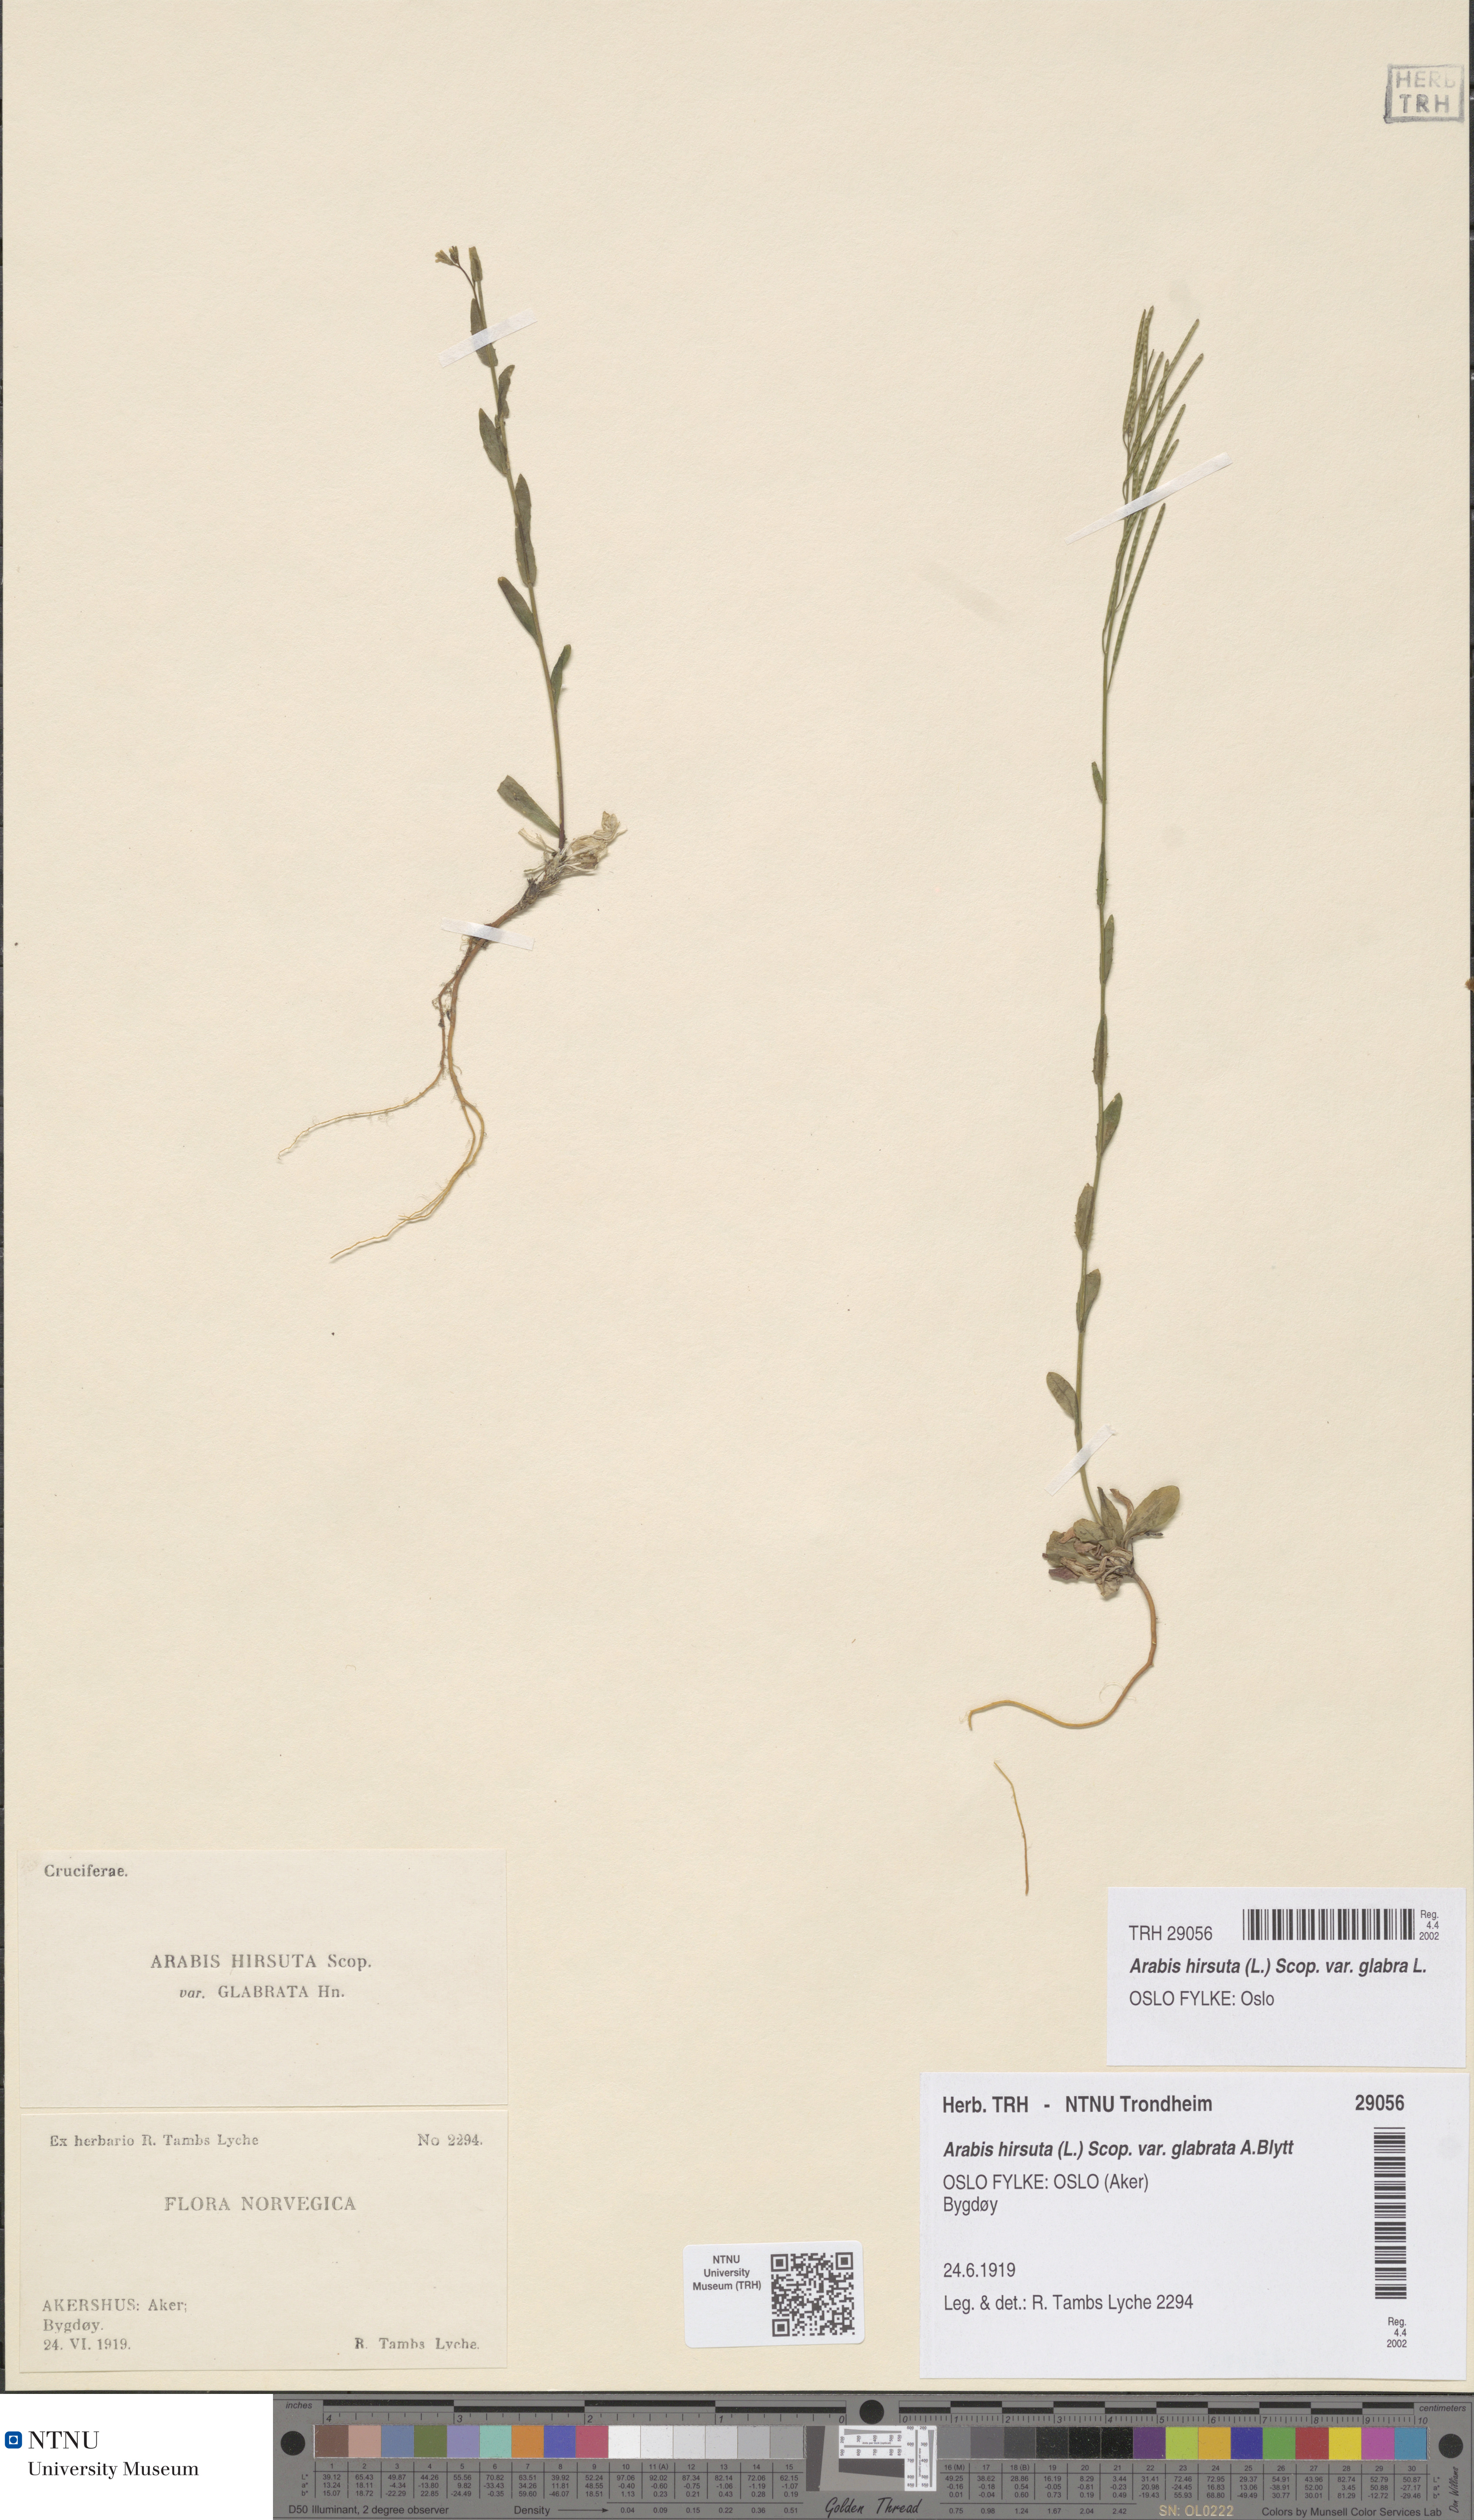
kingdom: Plantae
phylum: Tracheophyta
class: Magnoliopsida
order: Brassicales
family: Brassicaceae
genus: Arabis
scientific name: Arabis hirsuta
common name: Hairy rock-cress
